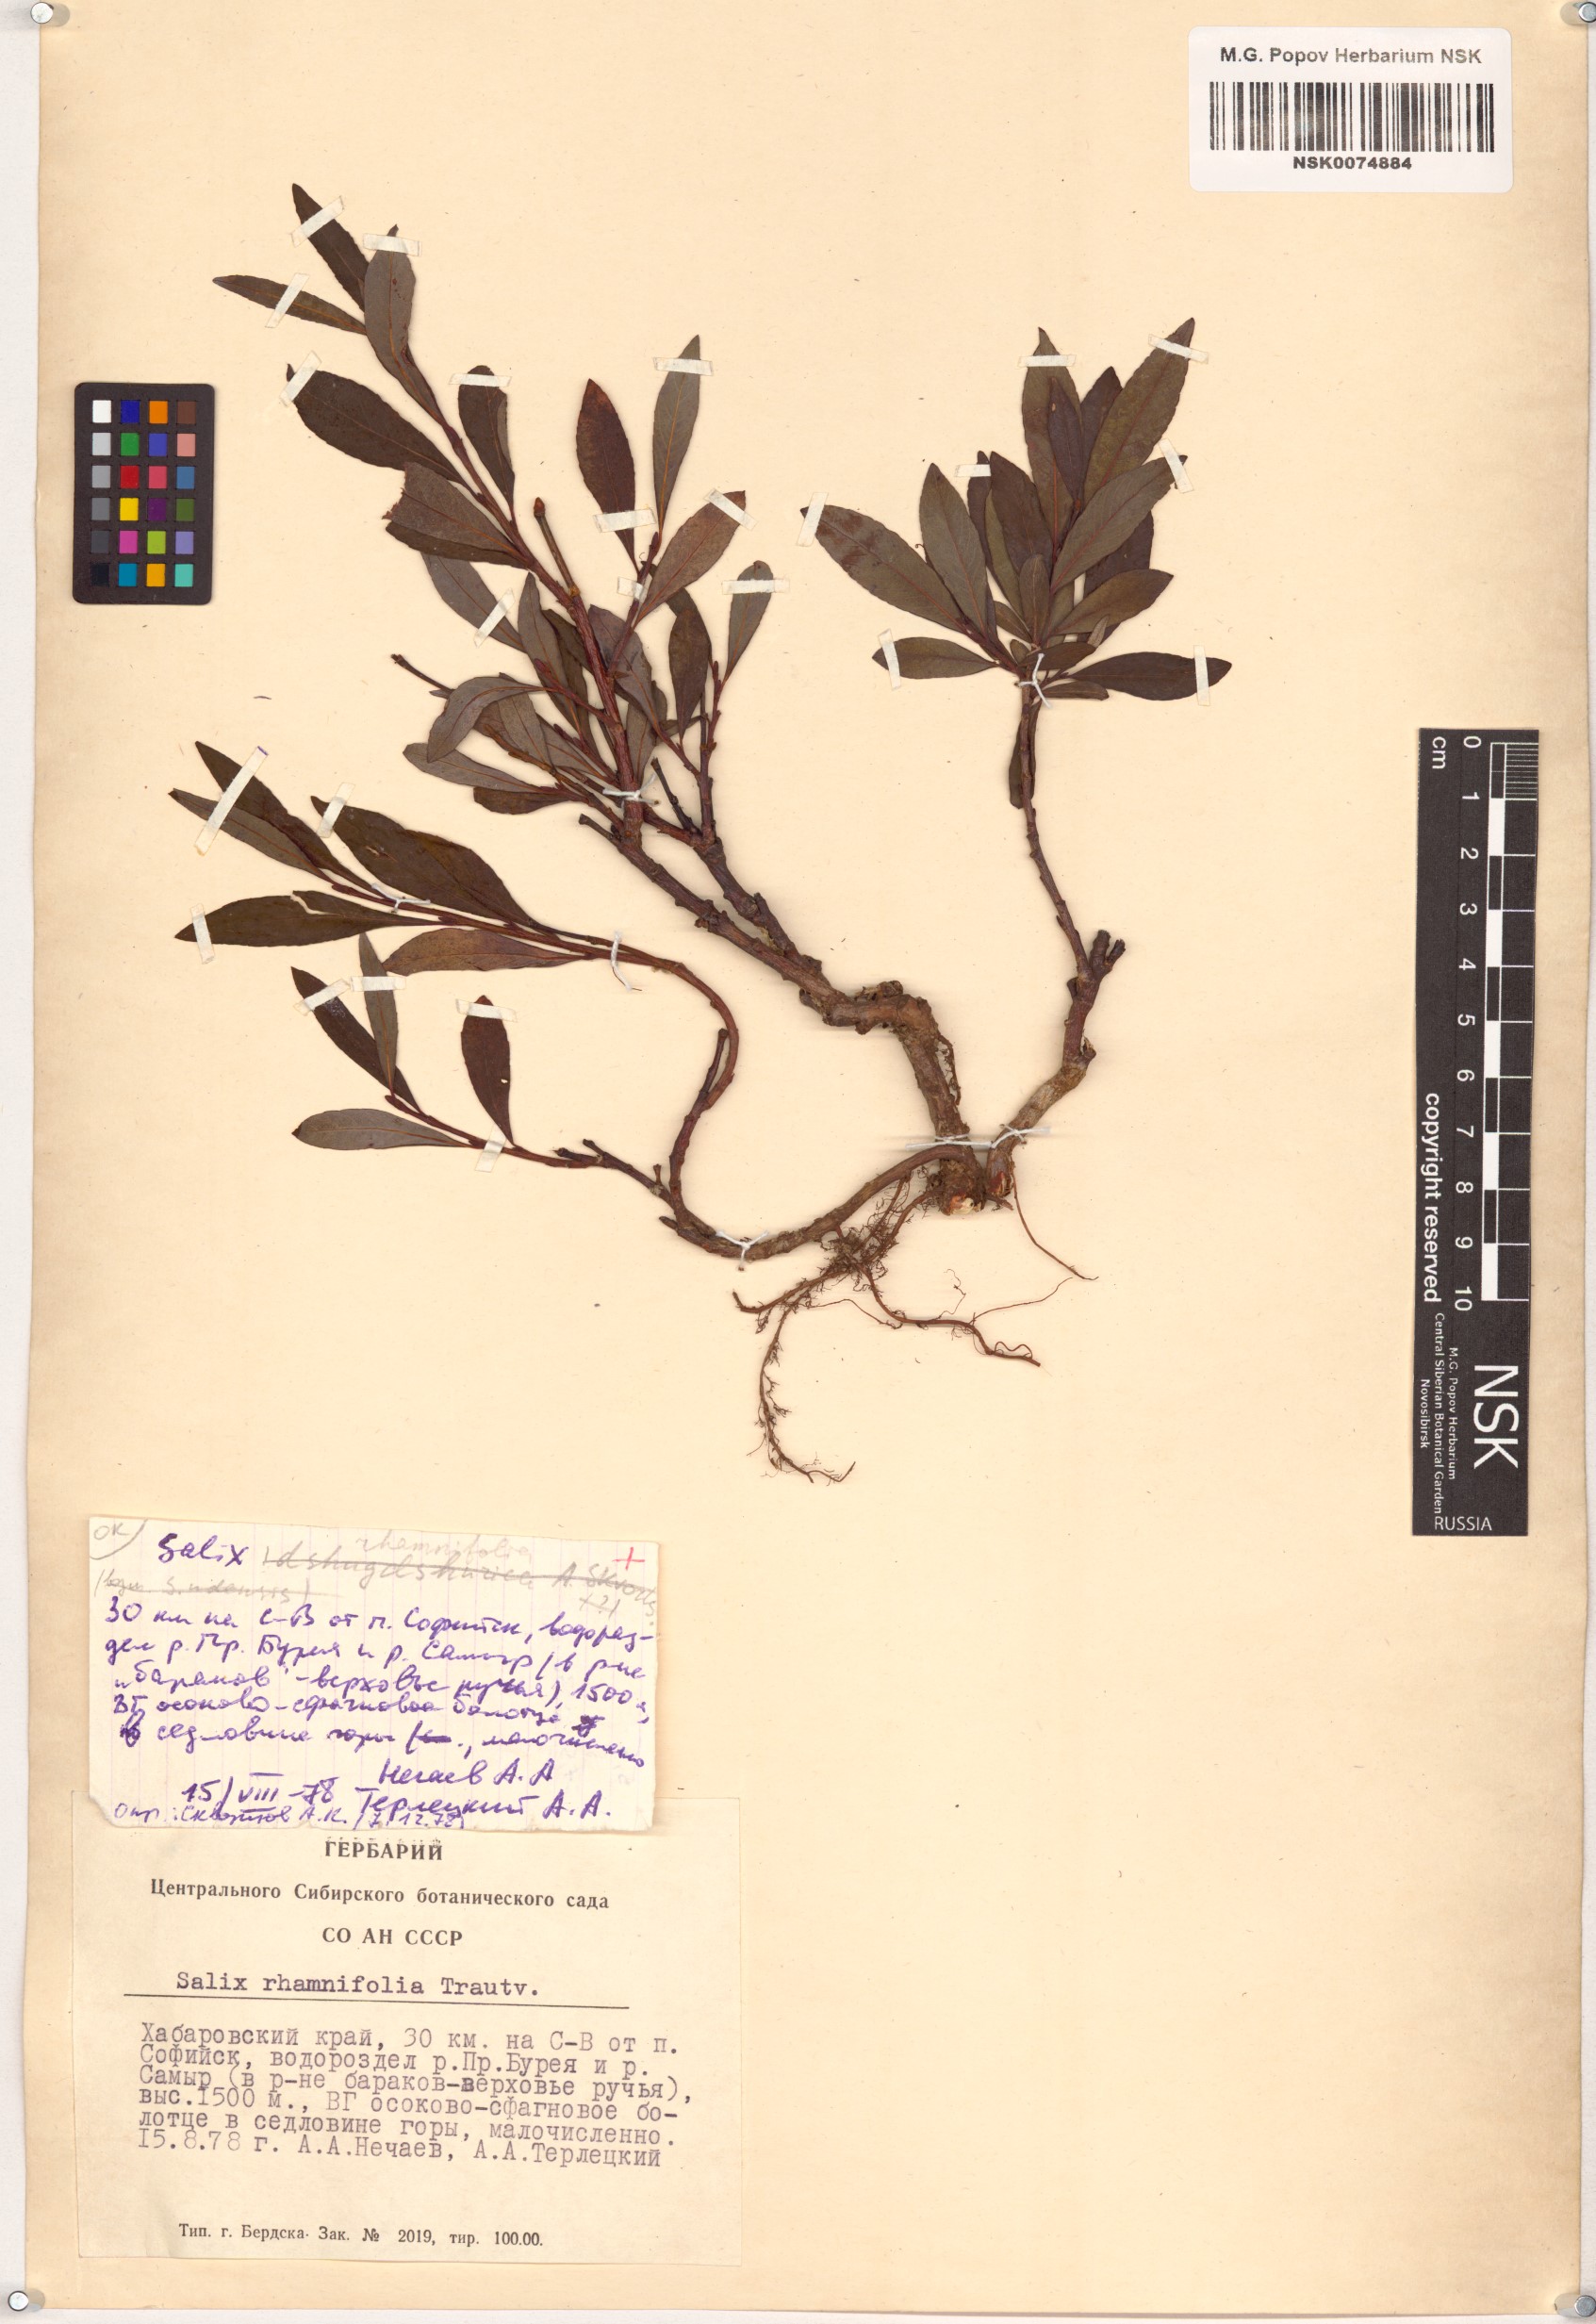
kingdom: Plantae
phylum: Tracheophyta
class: Magnoliopsida
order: Malpighiales
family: Salicaceae
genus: Salix
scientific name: Salix rhamnifolia
